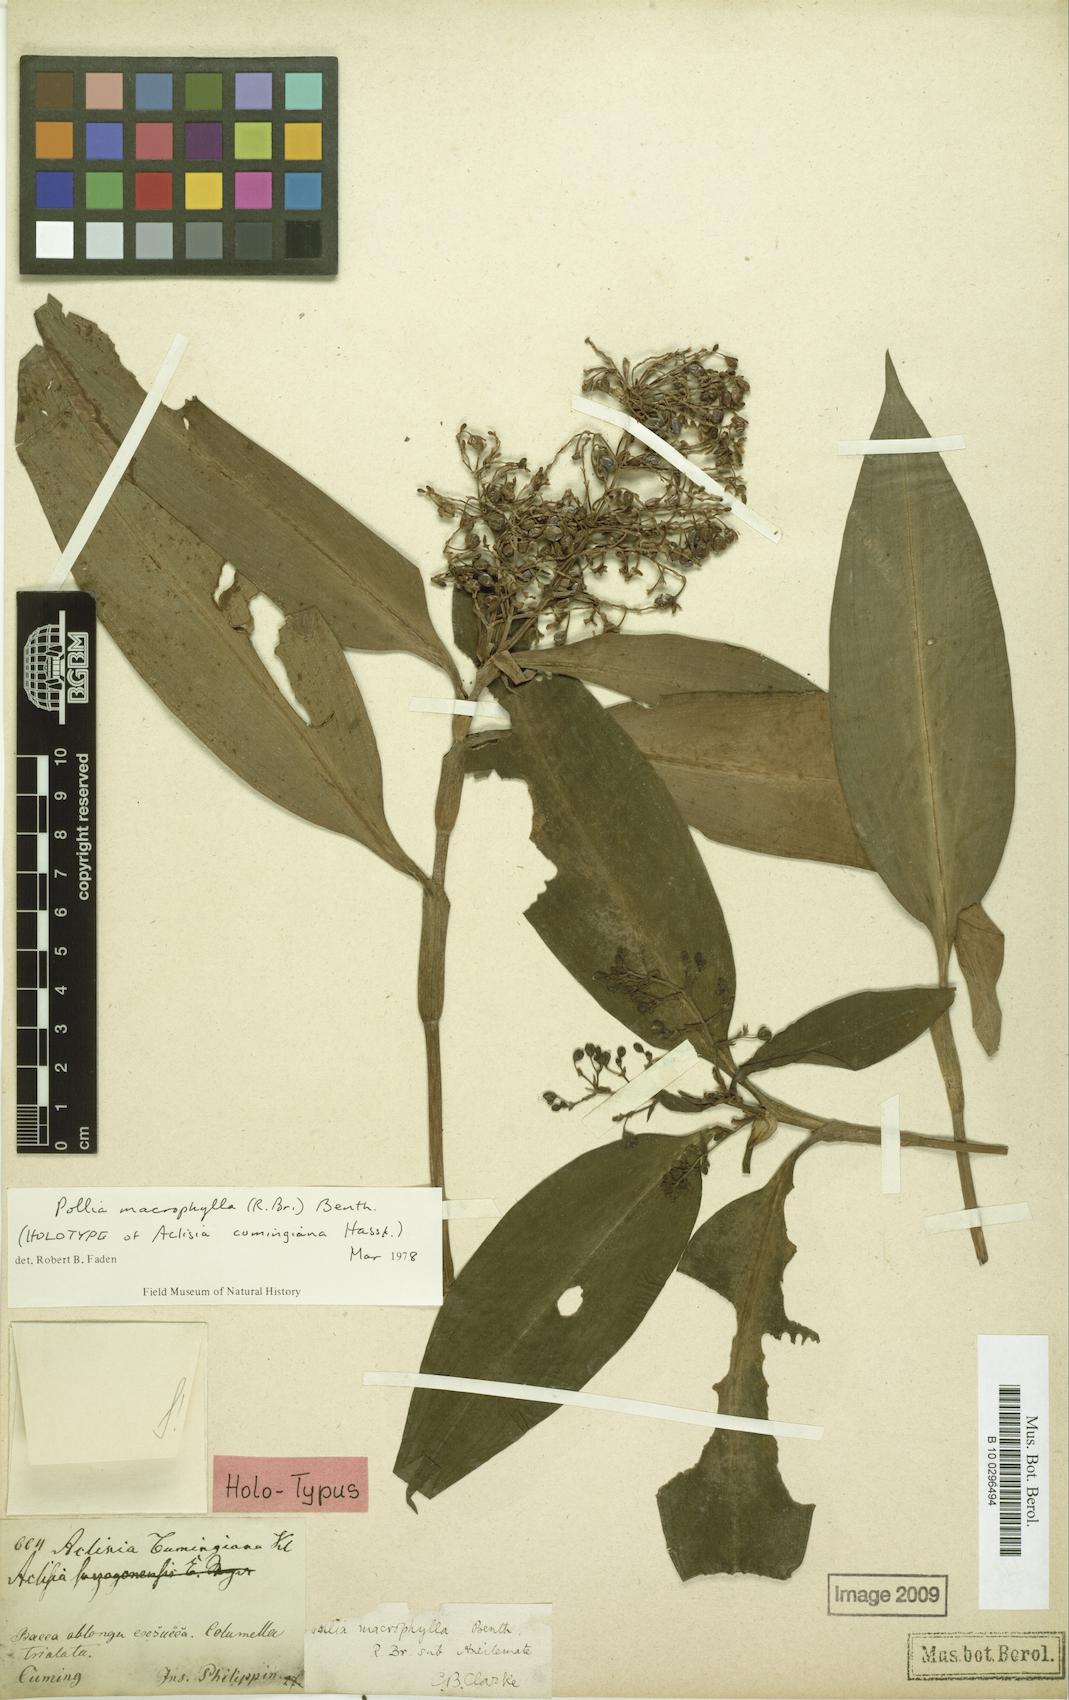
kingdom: Plantae
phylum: Tracheophyta
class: Liliopsida
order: Commelinales
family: Commelinaceae
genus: Pollia
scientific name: Pollia macrophylla
